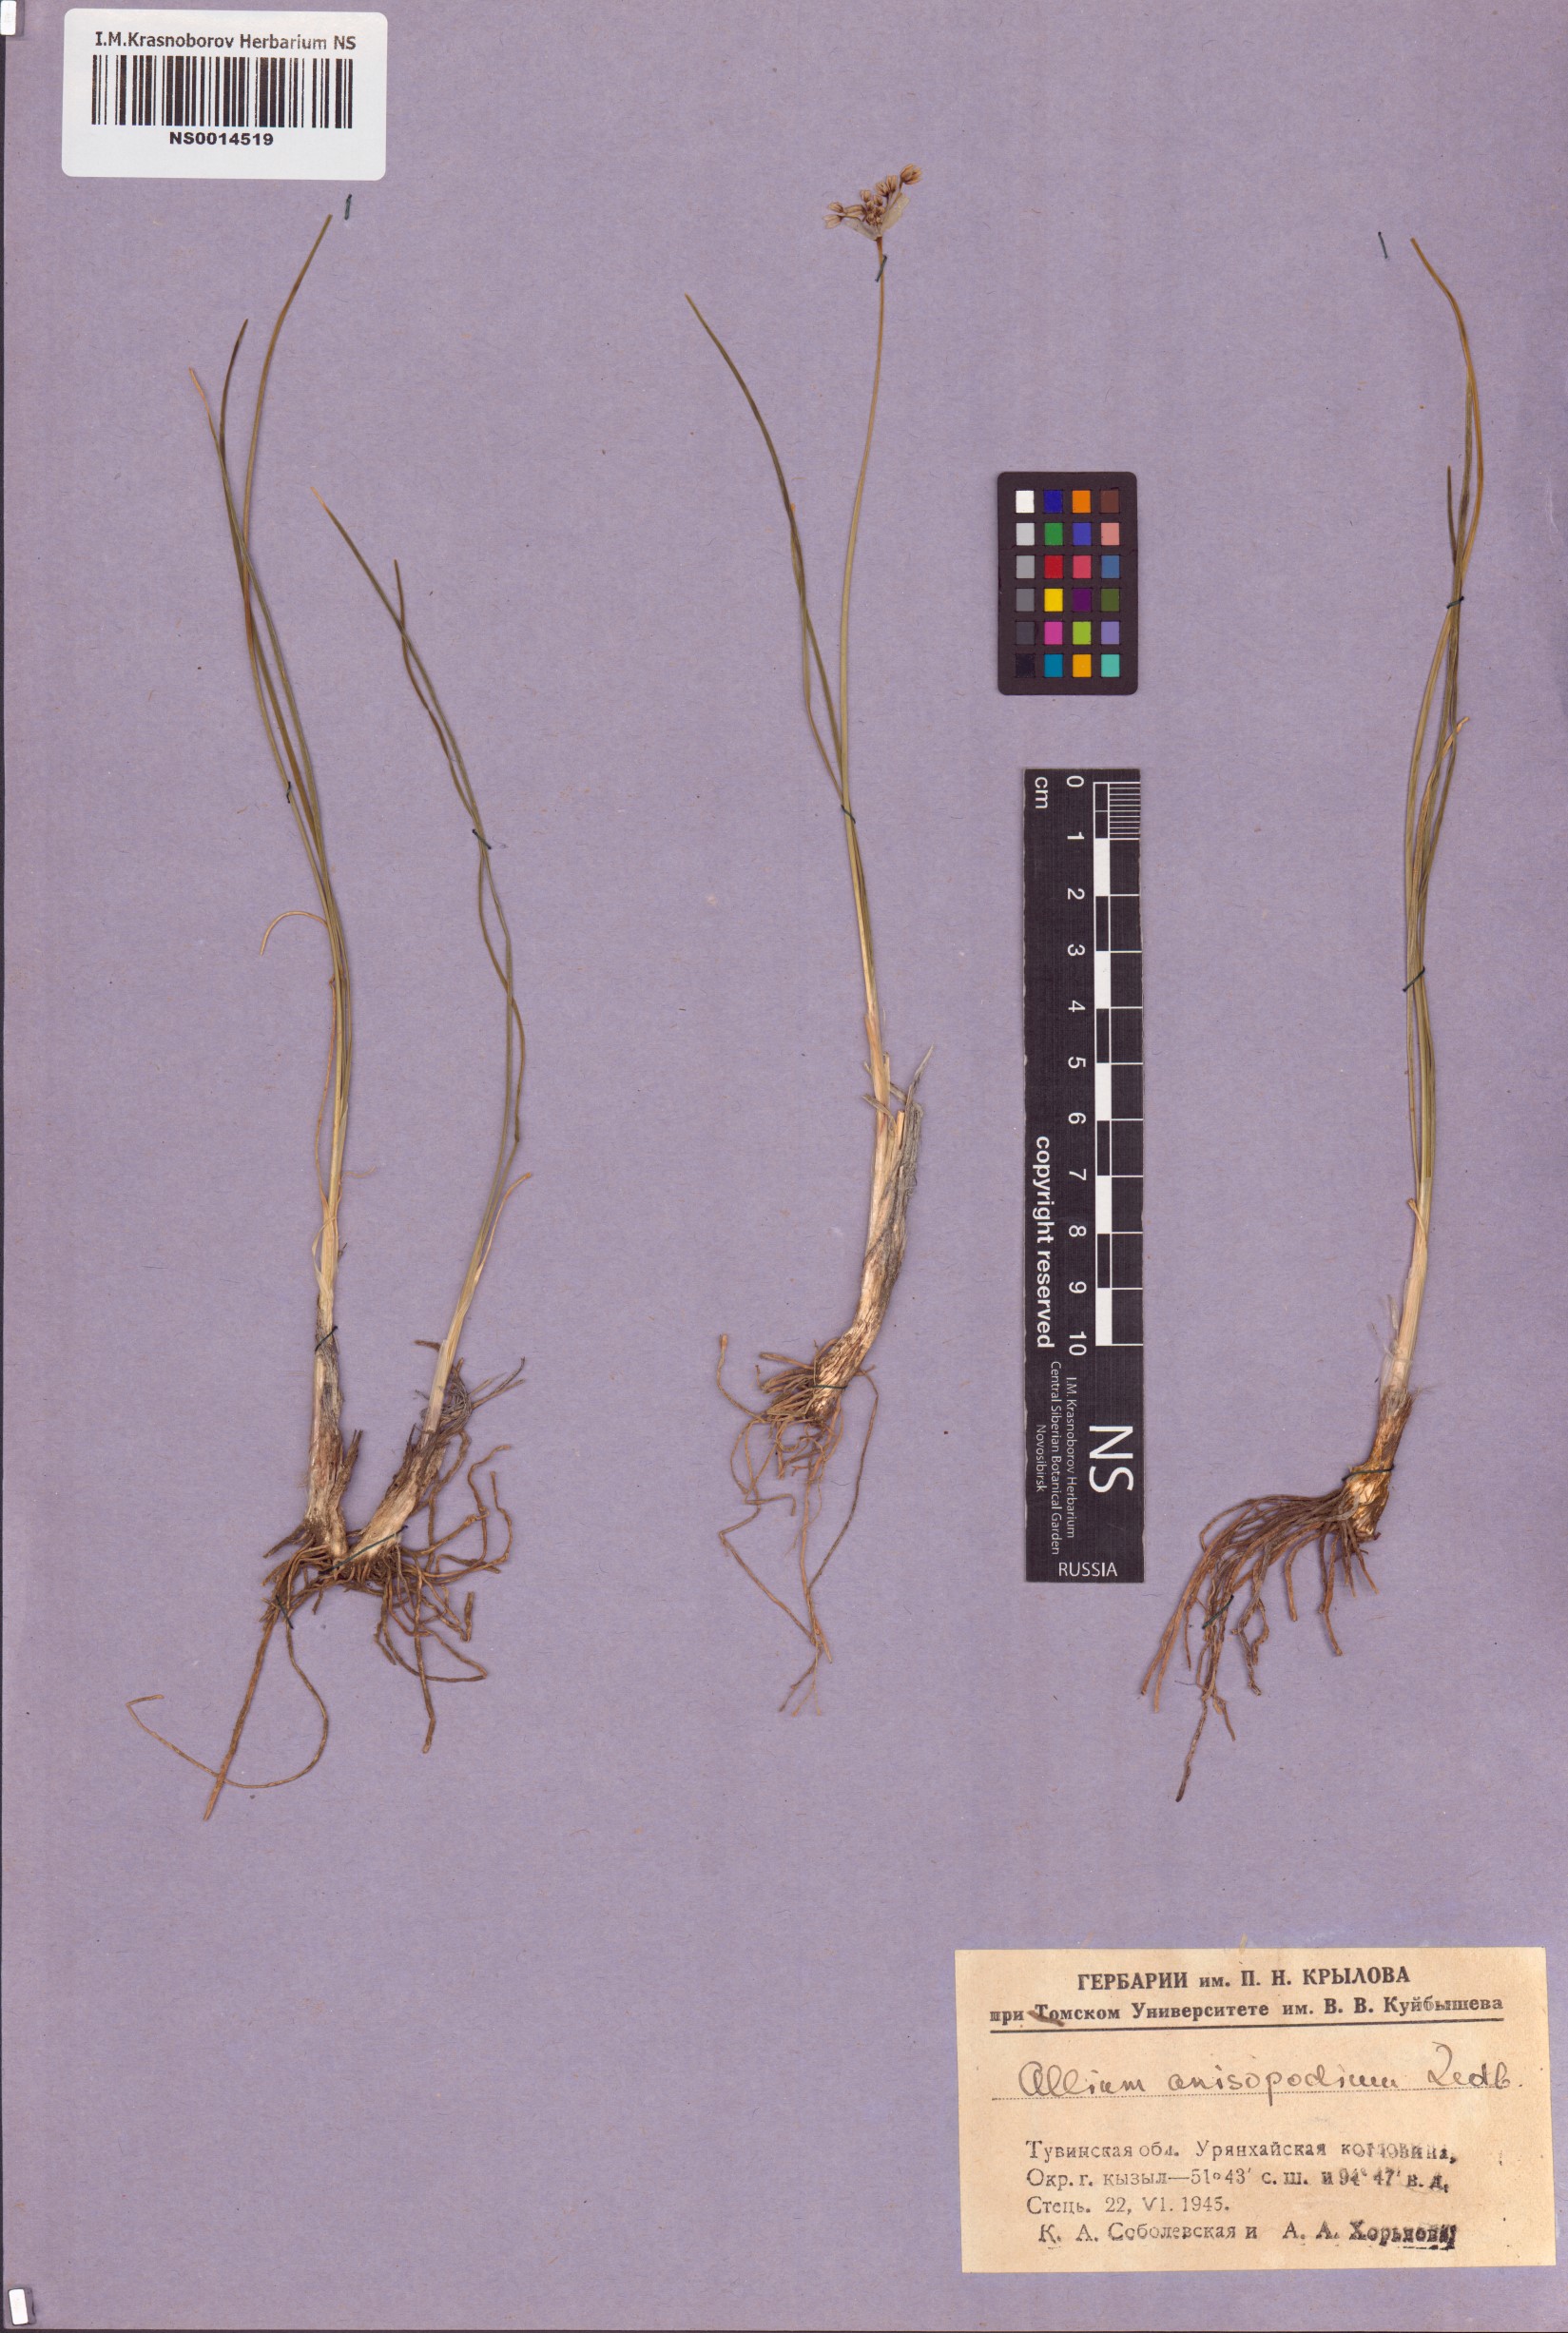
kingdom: Plantae
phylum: Tracheophyta
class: Liliopsida
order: Asparagales
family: Amaryllidaceae
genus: Allium
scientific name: Allium anisopodium
